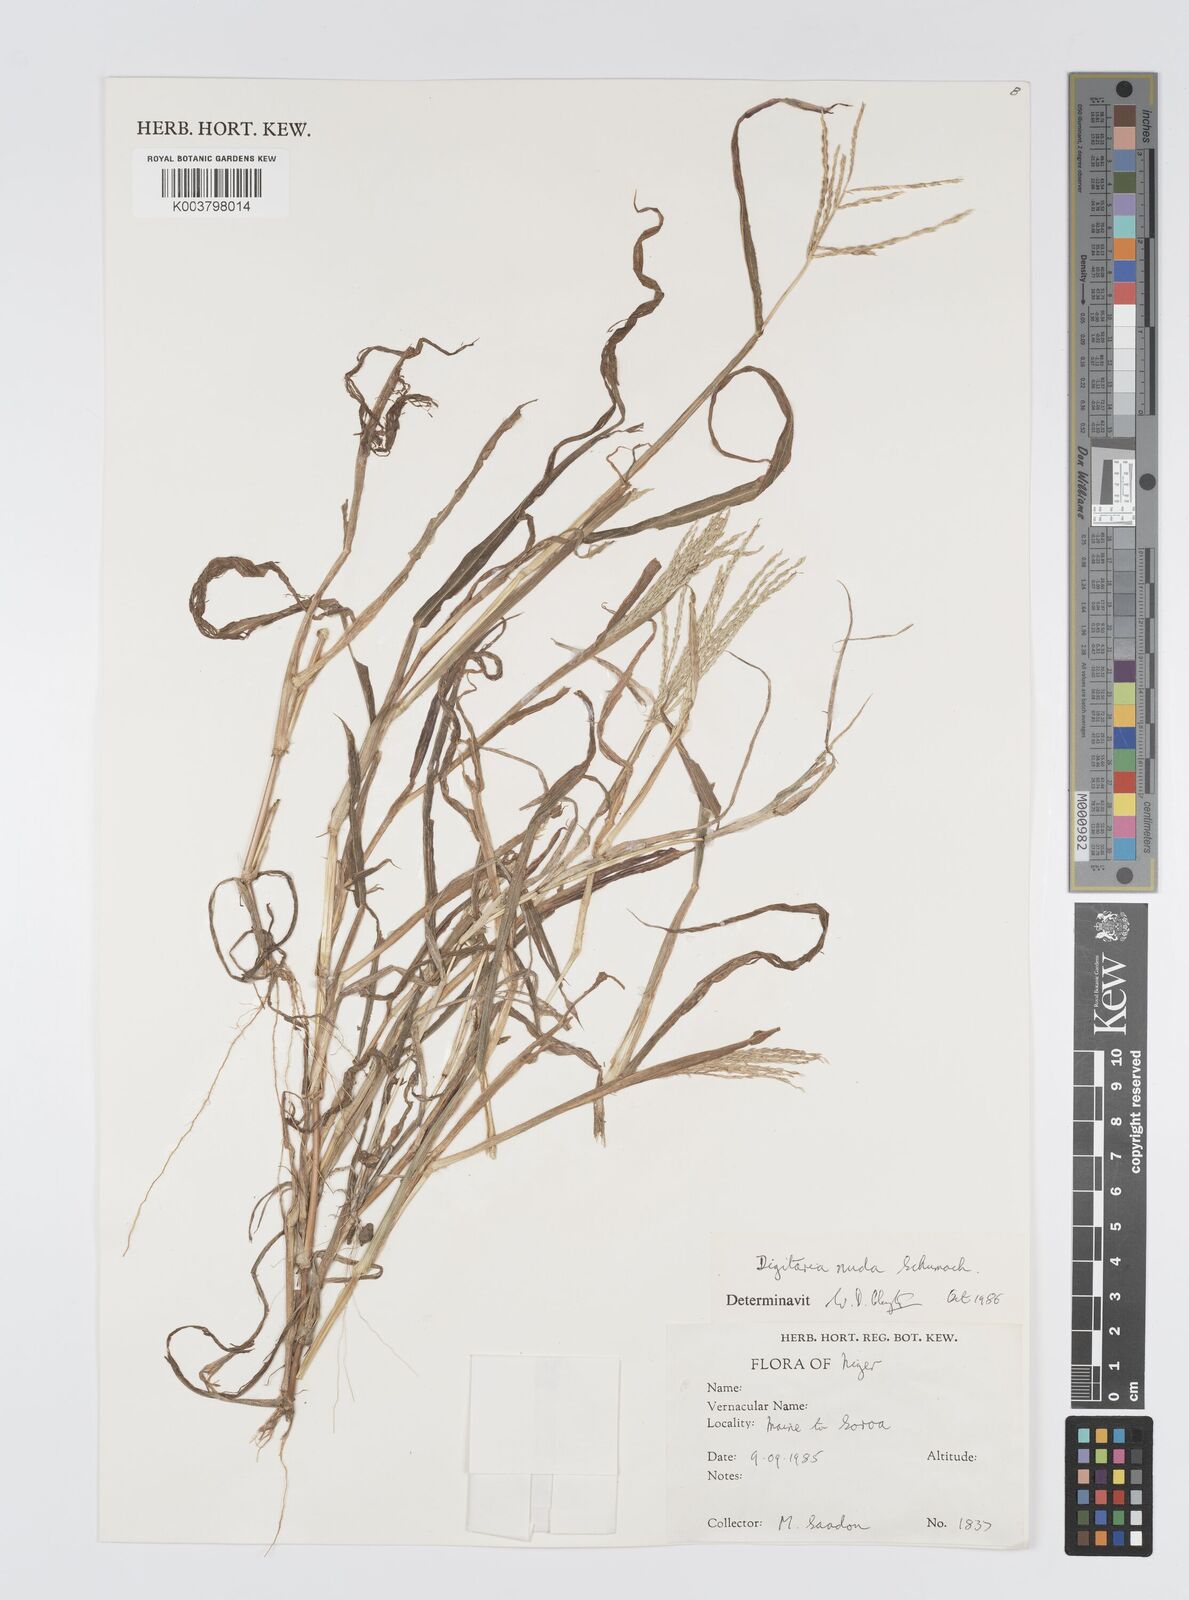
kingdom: Plantae
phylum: Tracheophyta
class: Liliopsida
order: Poales
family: Poaceae
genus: Digitaria
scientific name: Digitaria nuda
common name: Naked crabgrass
